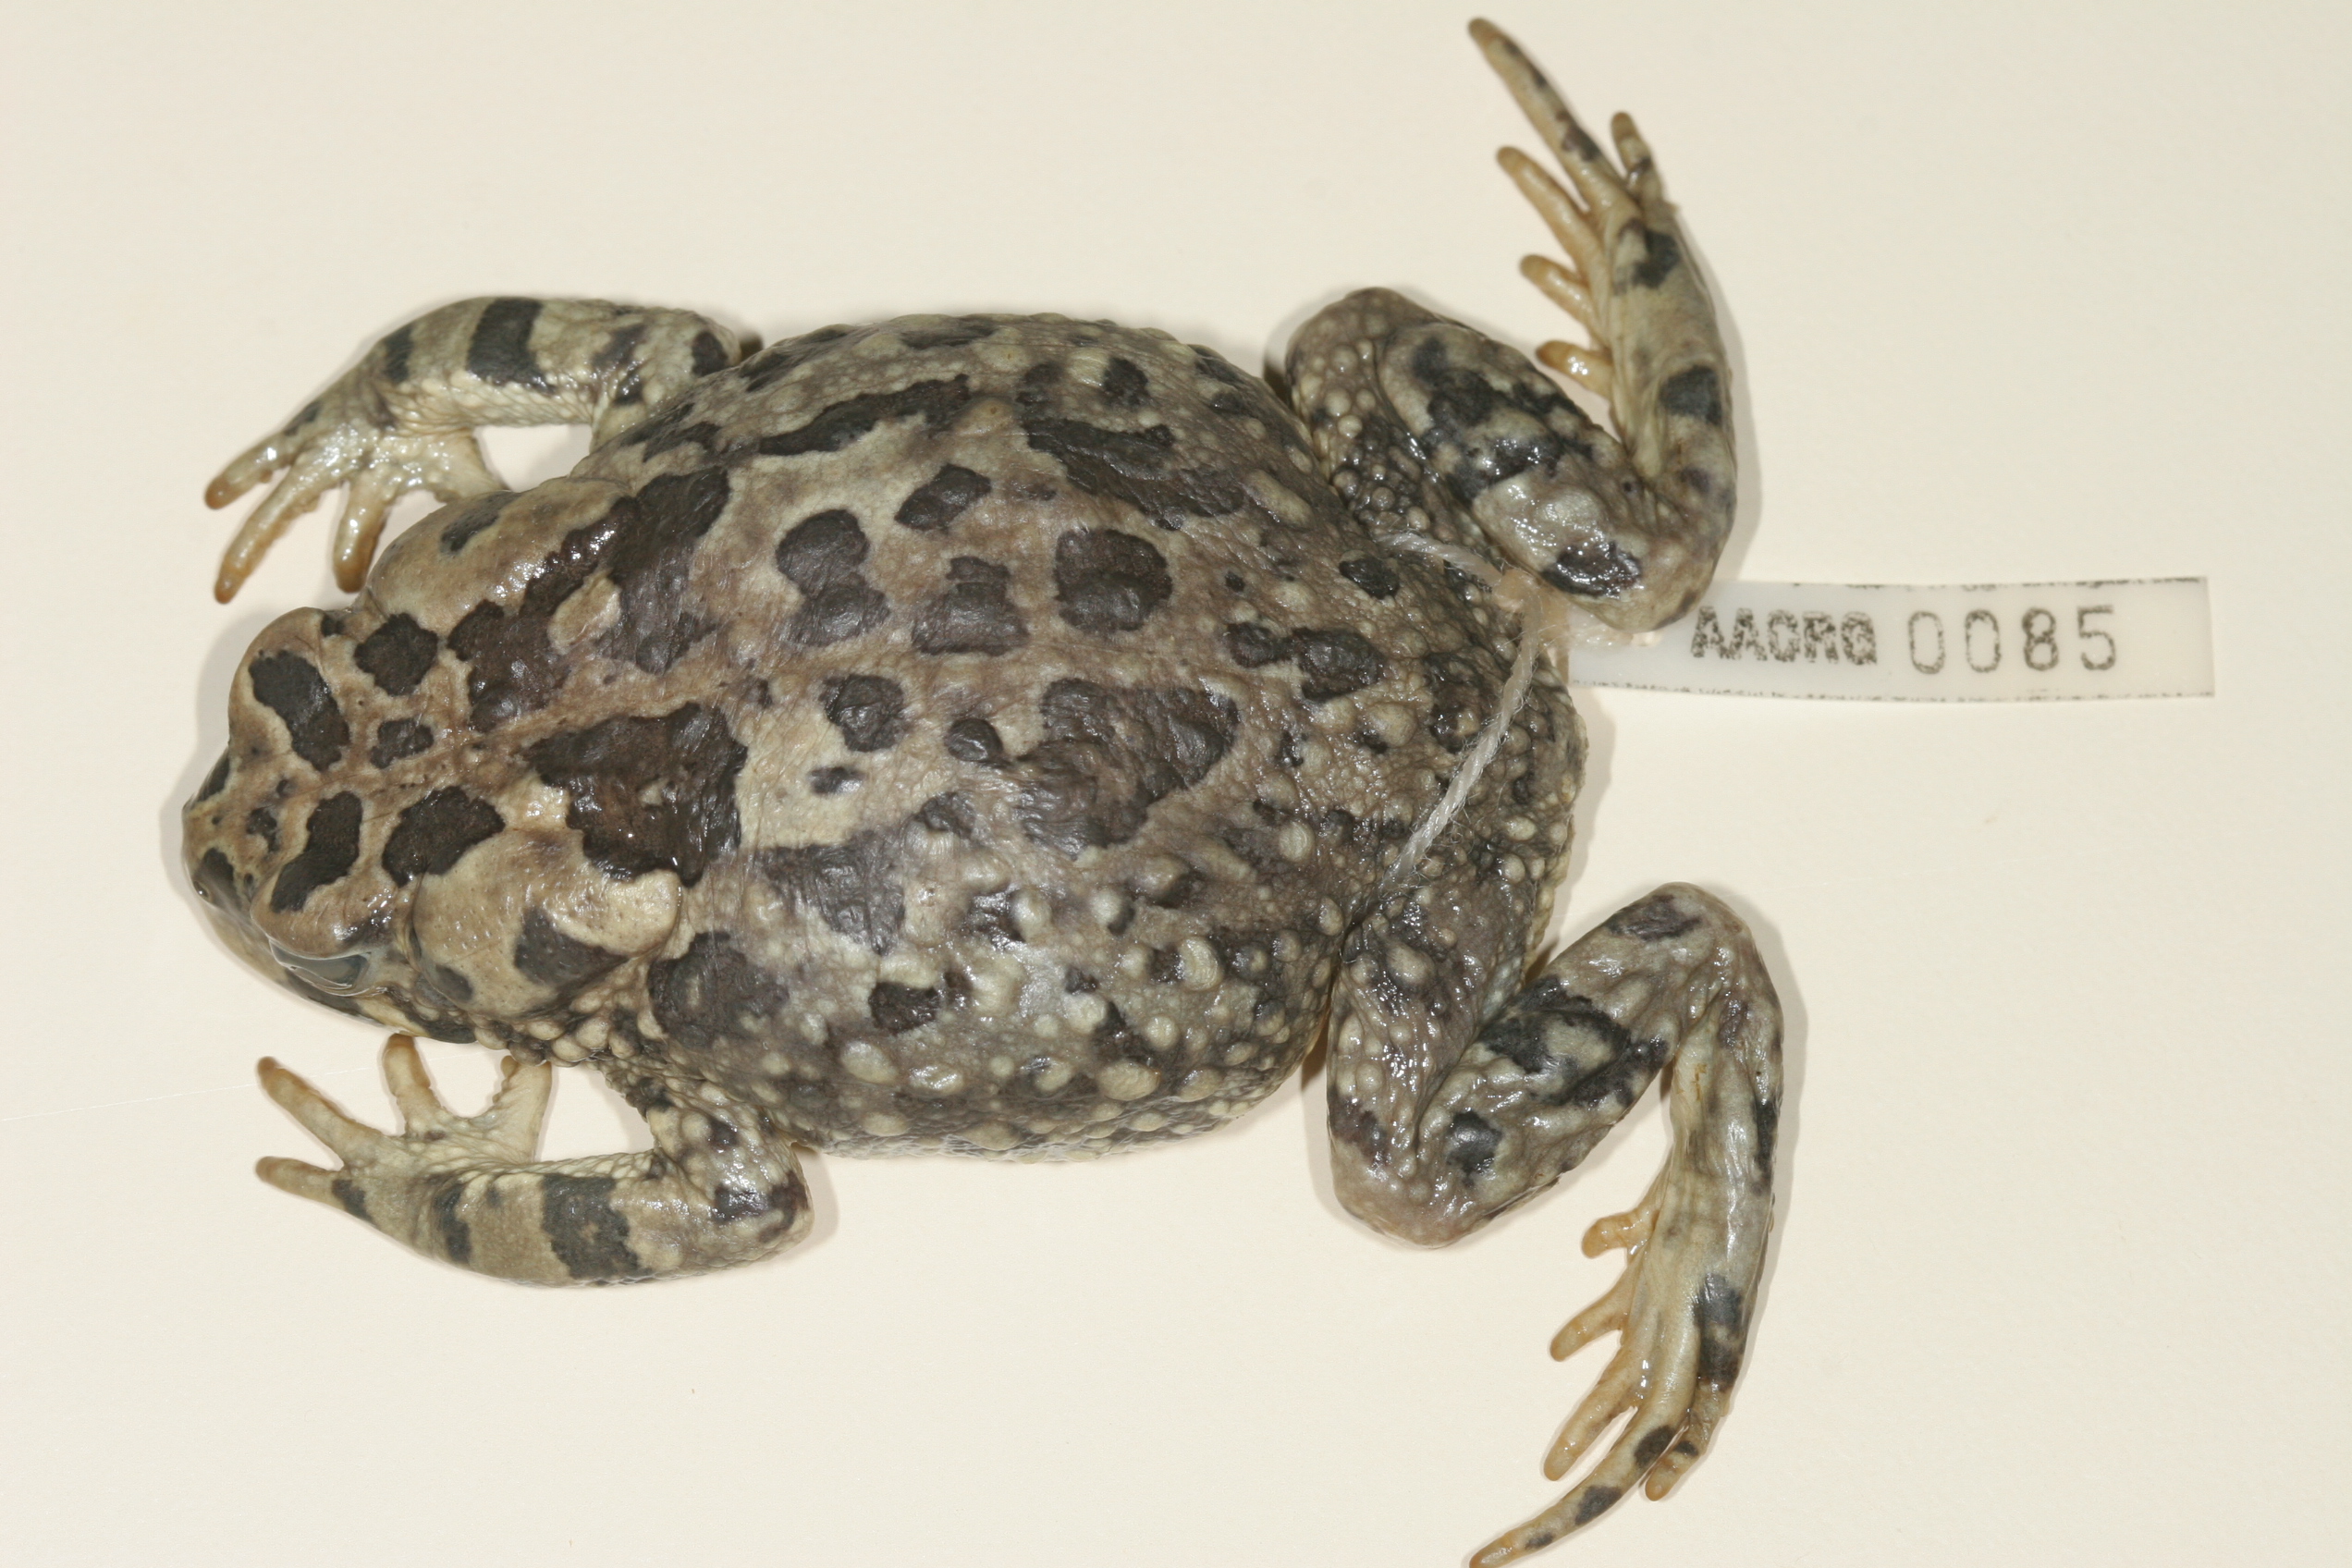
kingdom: Animalia
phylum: Chordata
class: Amphibia
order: Anura
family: Bufonidae
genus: Vandijkophrynus
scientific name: Vandijkophrynus gariepensis
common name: Gariep toad
